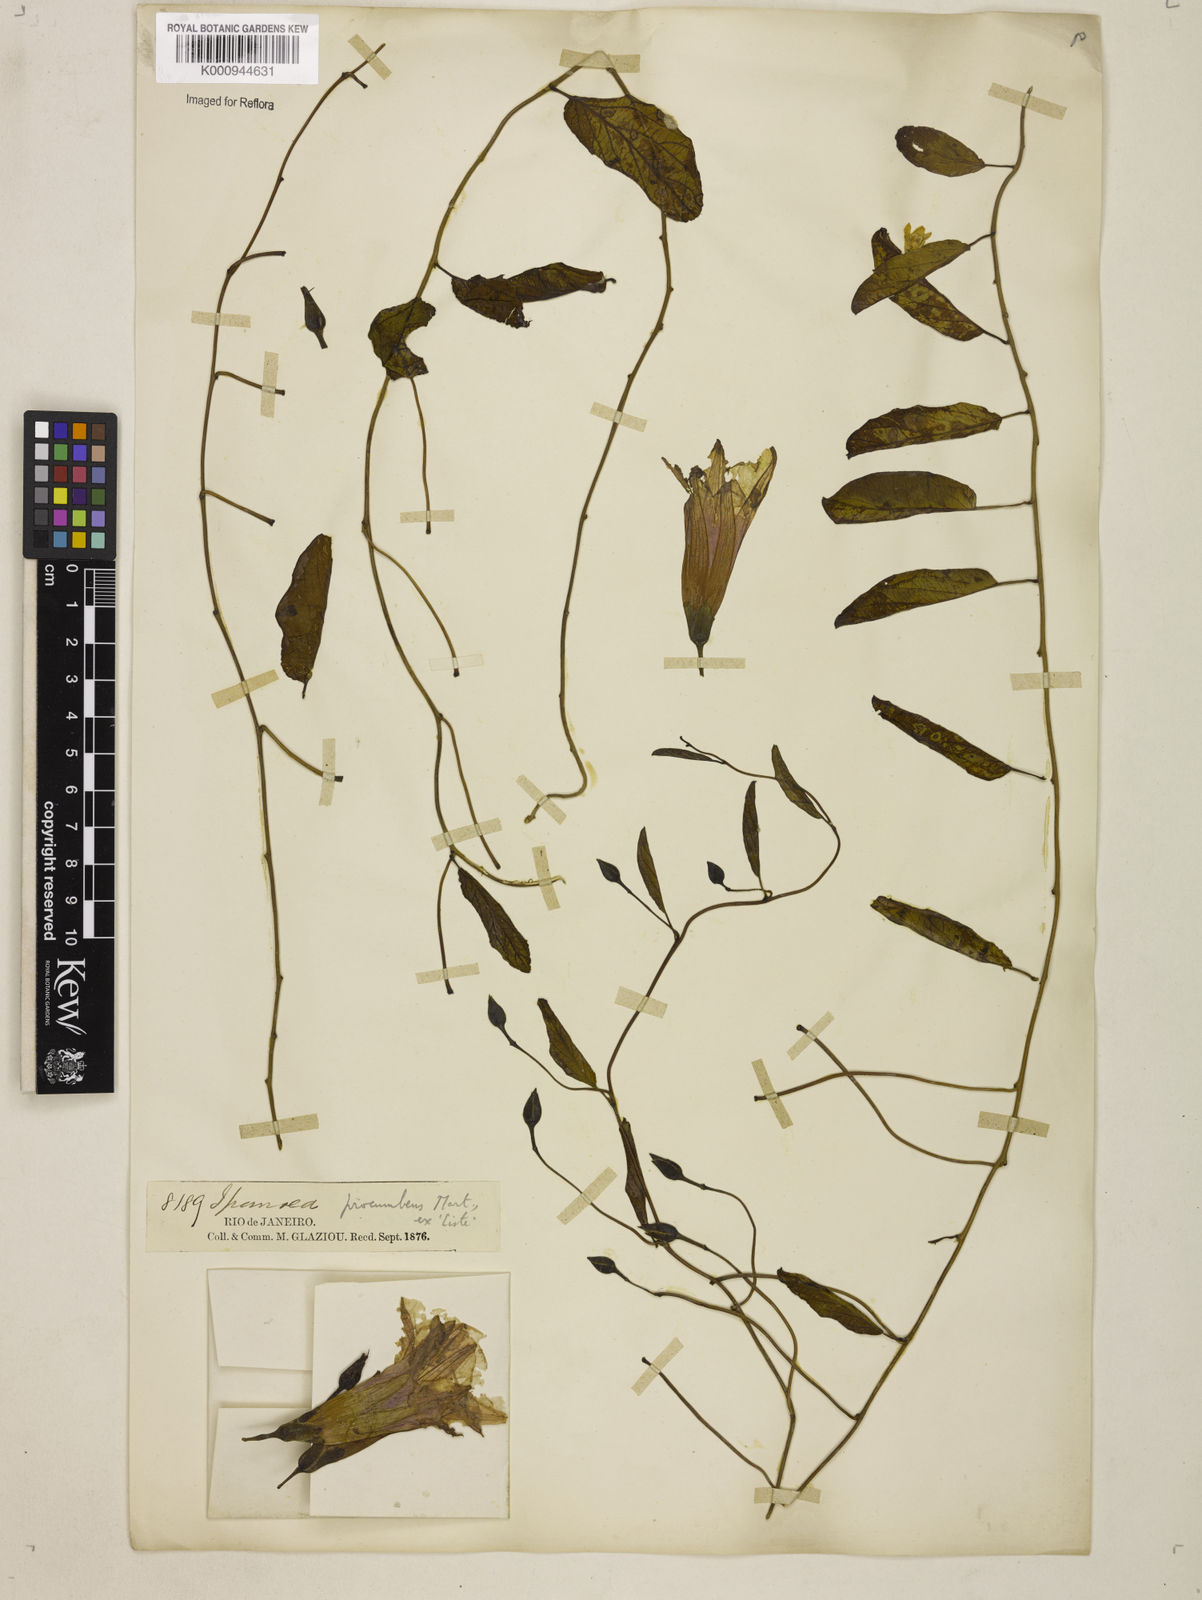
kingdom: Plantae
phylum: Tracheophyta
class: Magnoliopsida
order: Solanales
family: Convolvulaceae
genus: Ipomoea
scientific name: Ipomoea procumbens
